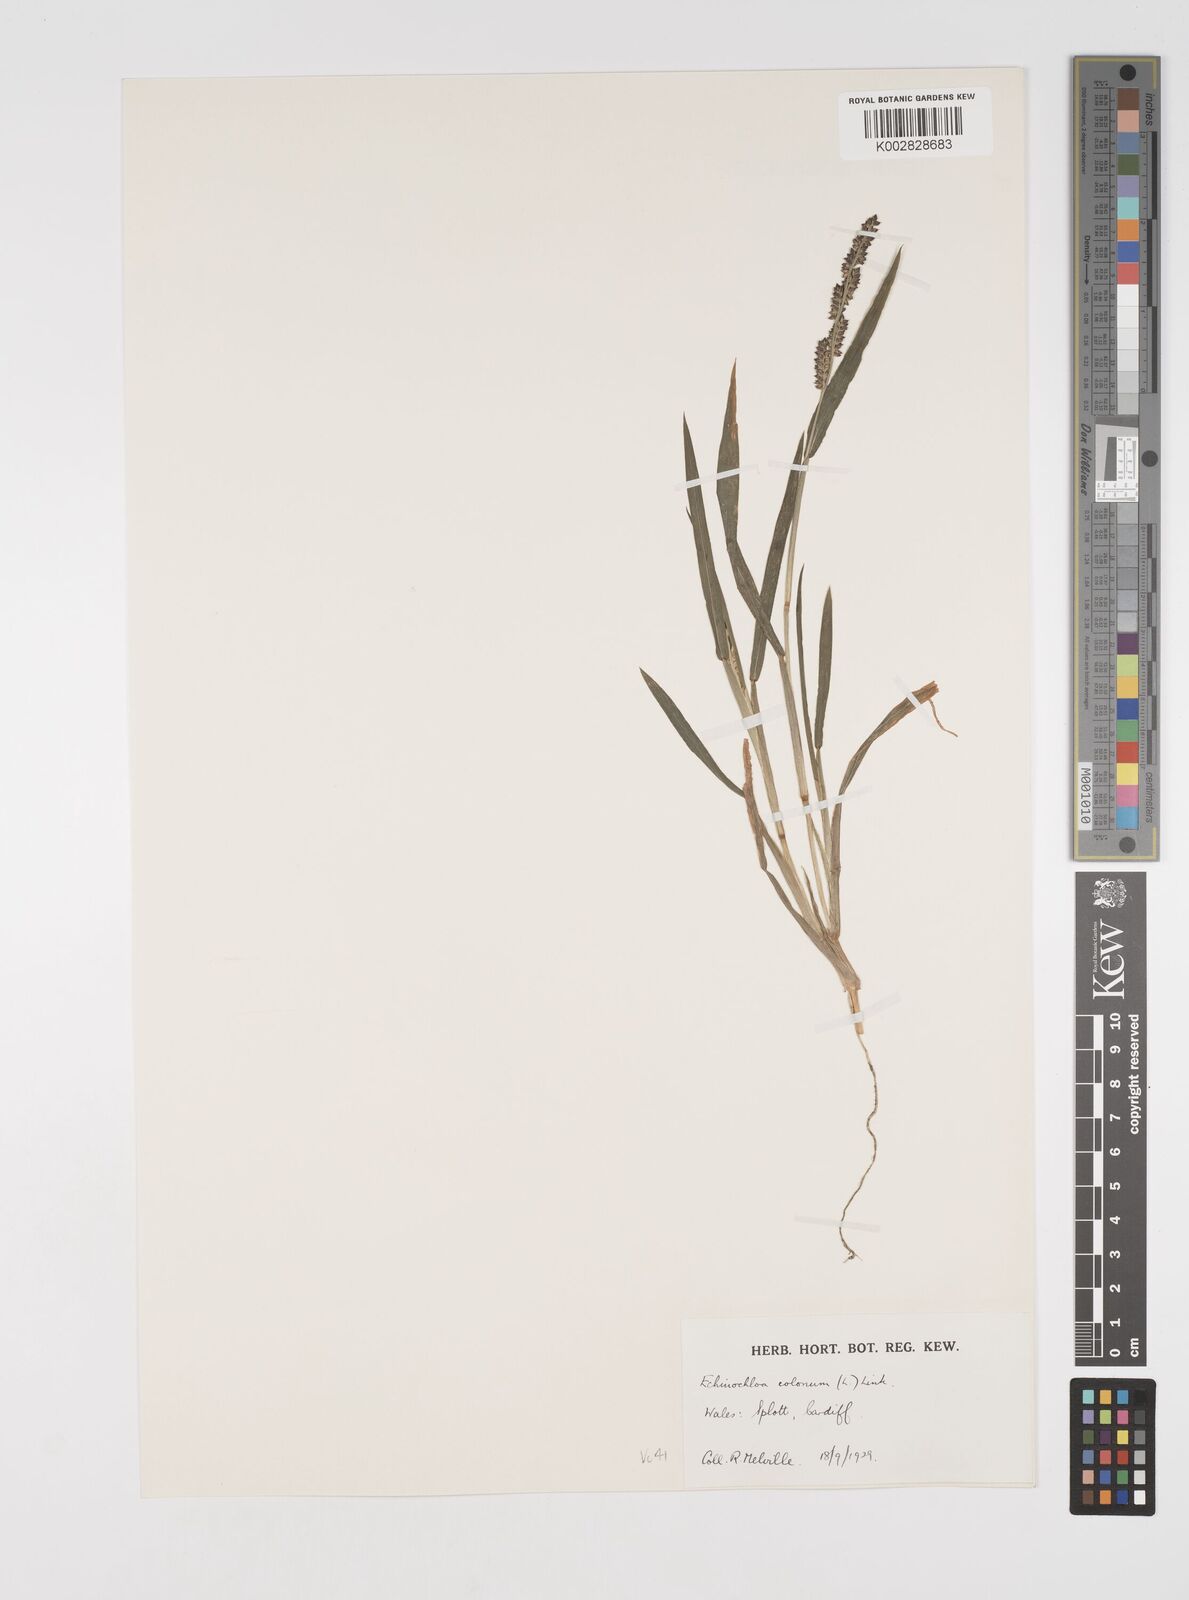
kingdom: Plantae
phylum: Tracheophyta
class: Liliopsida
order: Poales
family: Poaceae
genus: Echinochloa
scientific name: Echinochloa colonum
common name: Jungle rice
